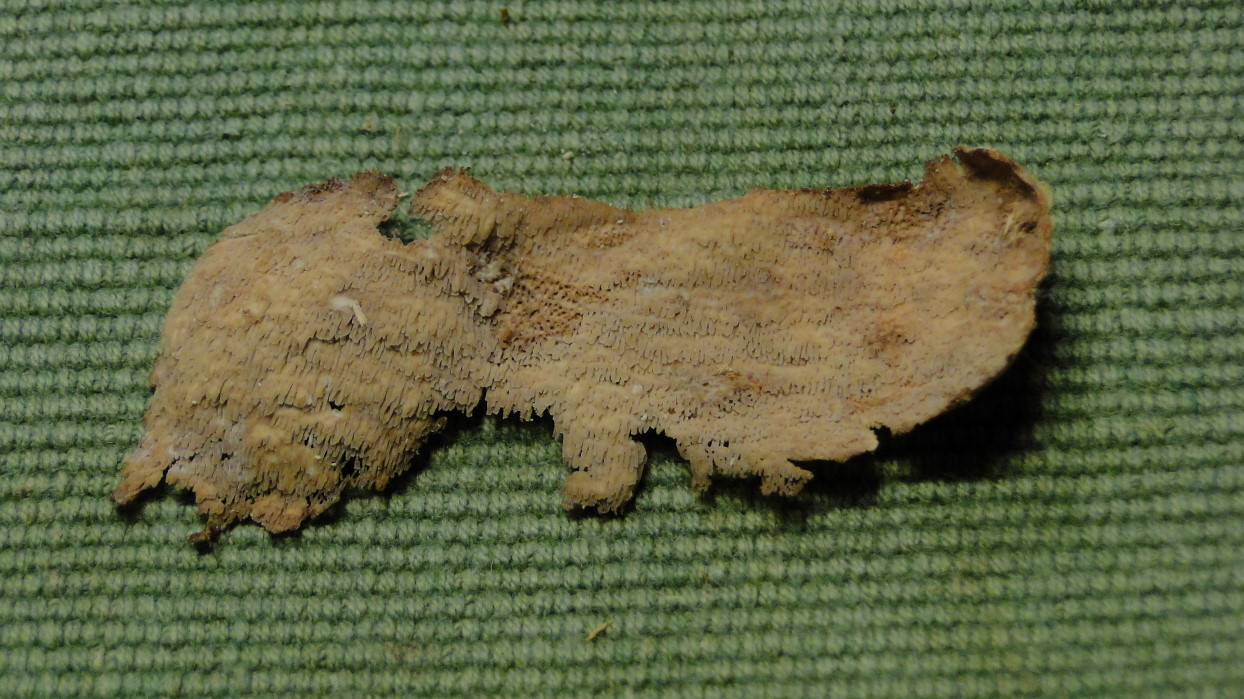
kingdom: Fungi
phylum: Basidiomycota
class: Agaricomycetes
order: Polyporales
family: Meruliaceae
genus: Phlebia
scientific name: Phlebia rufa
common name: ege-åresvamp
